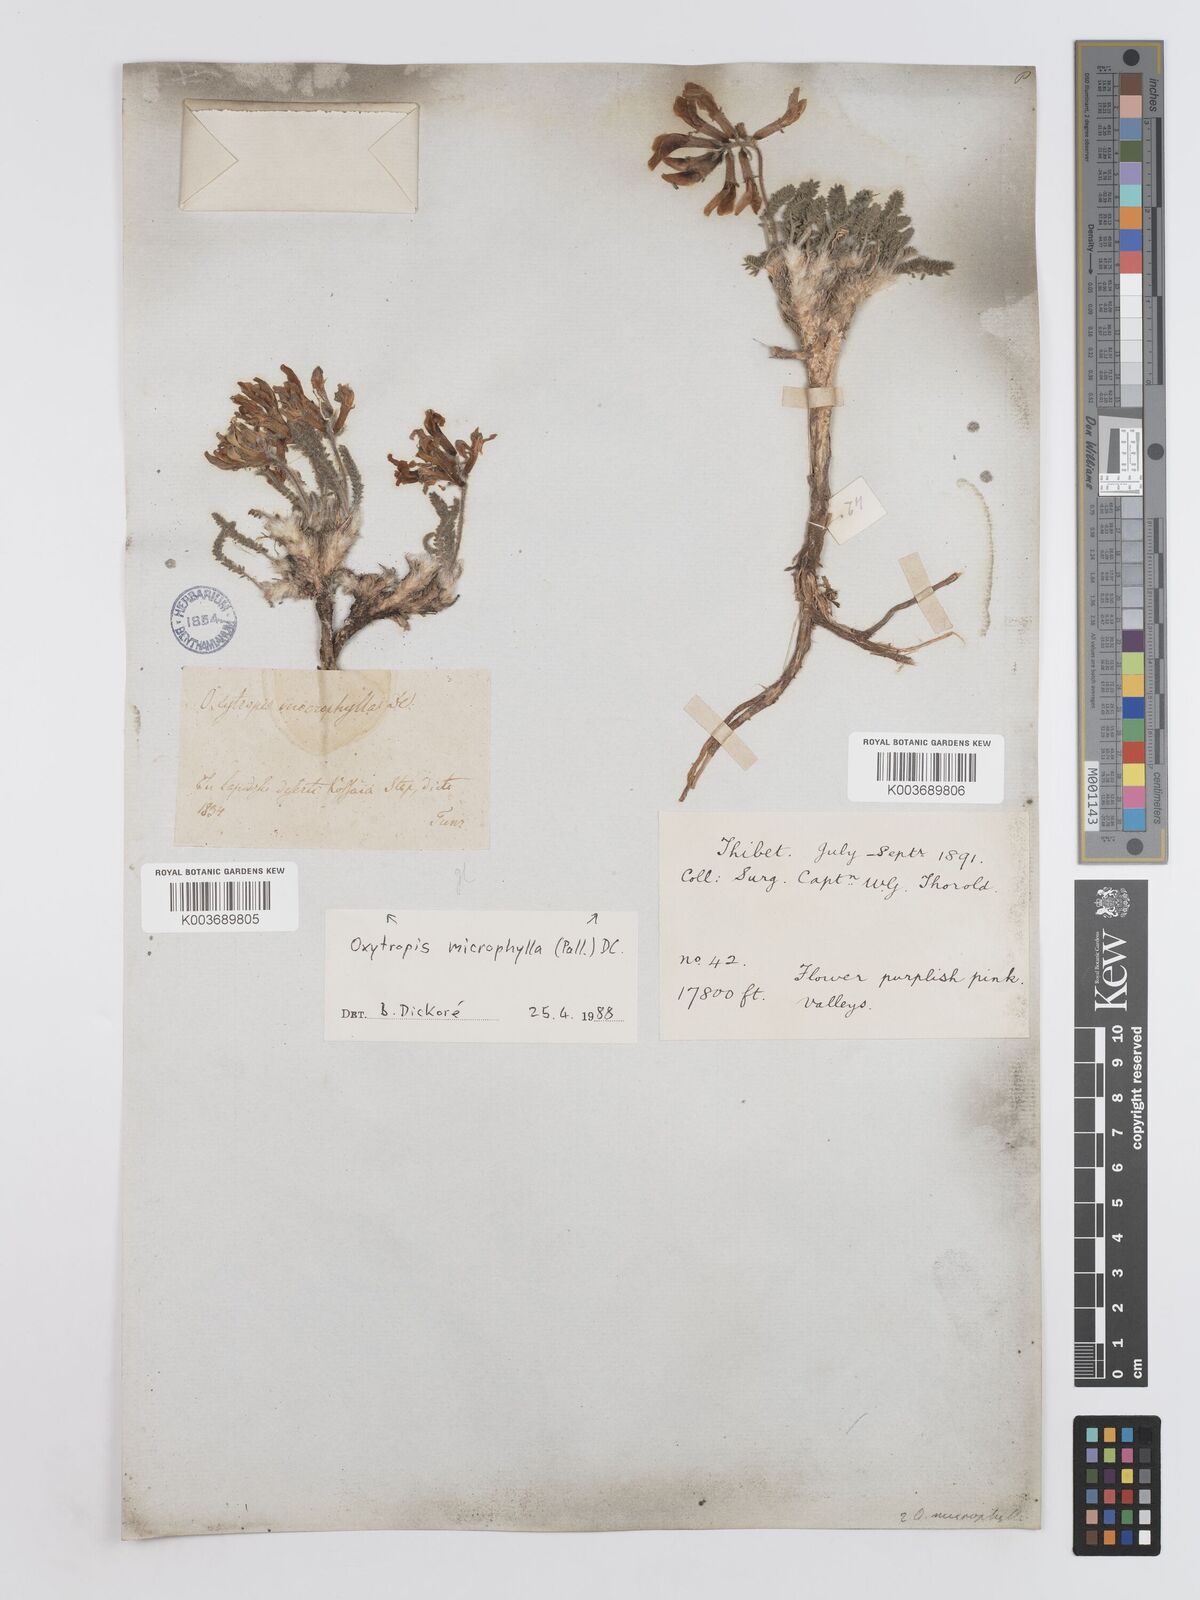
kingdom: Plantae
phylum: Tracheophyta
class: Magnoliopsida
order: Fabales
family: Fabaceae
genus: Oxytropis
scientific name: Oxytropis microphylla
